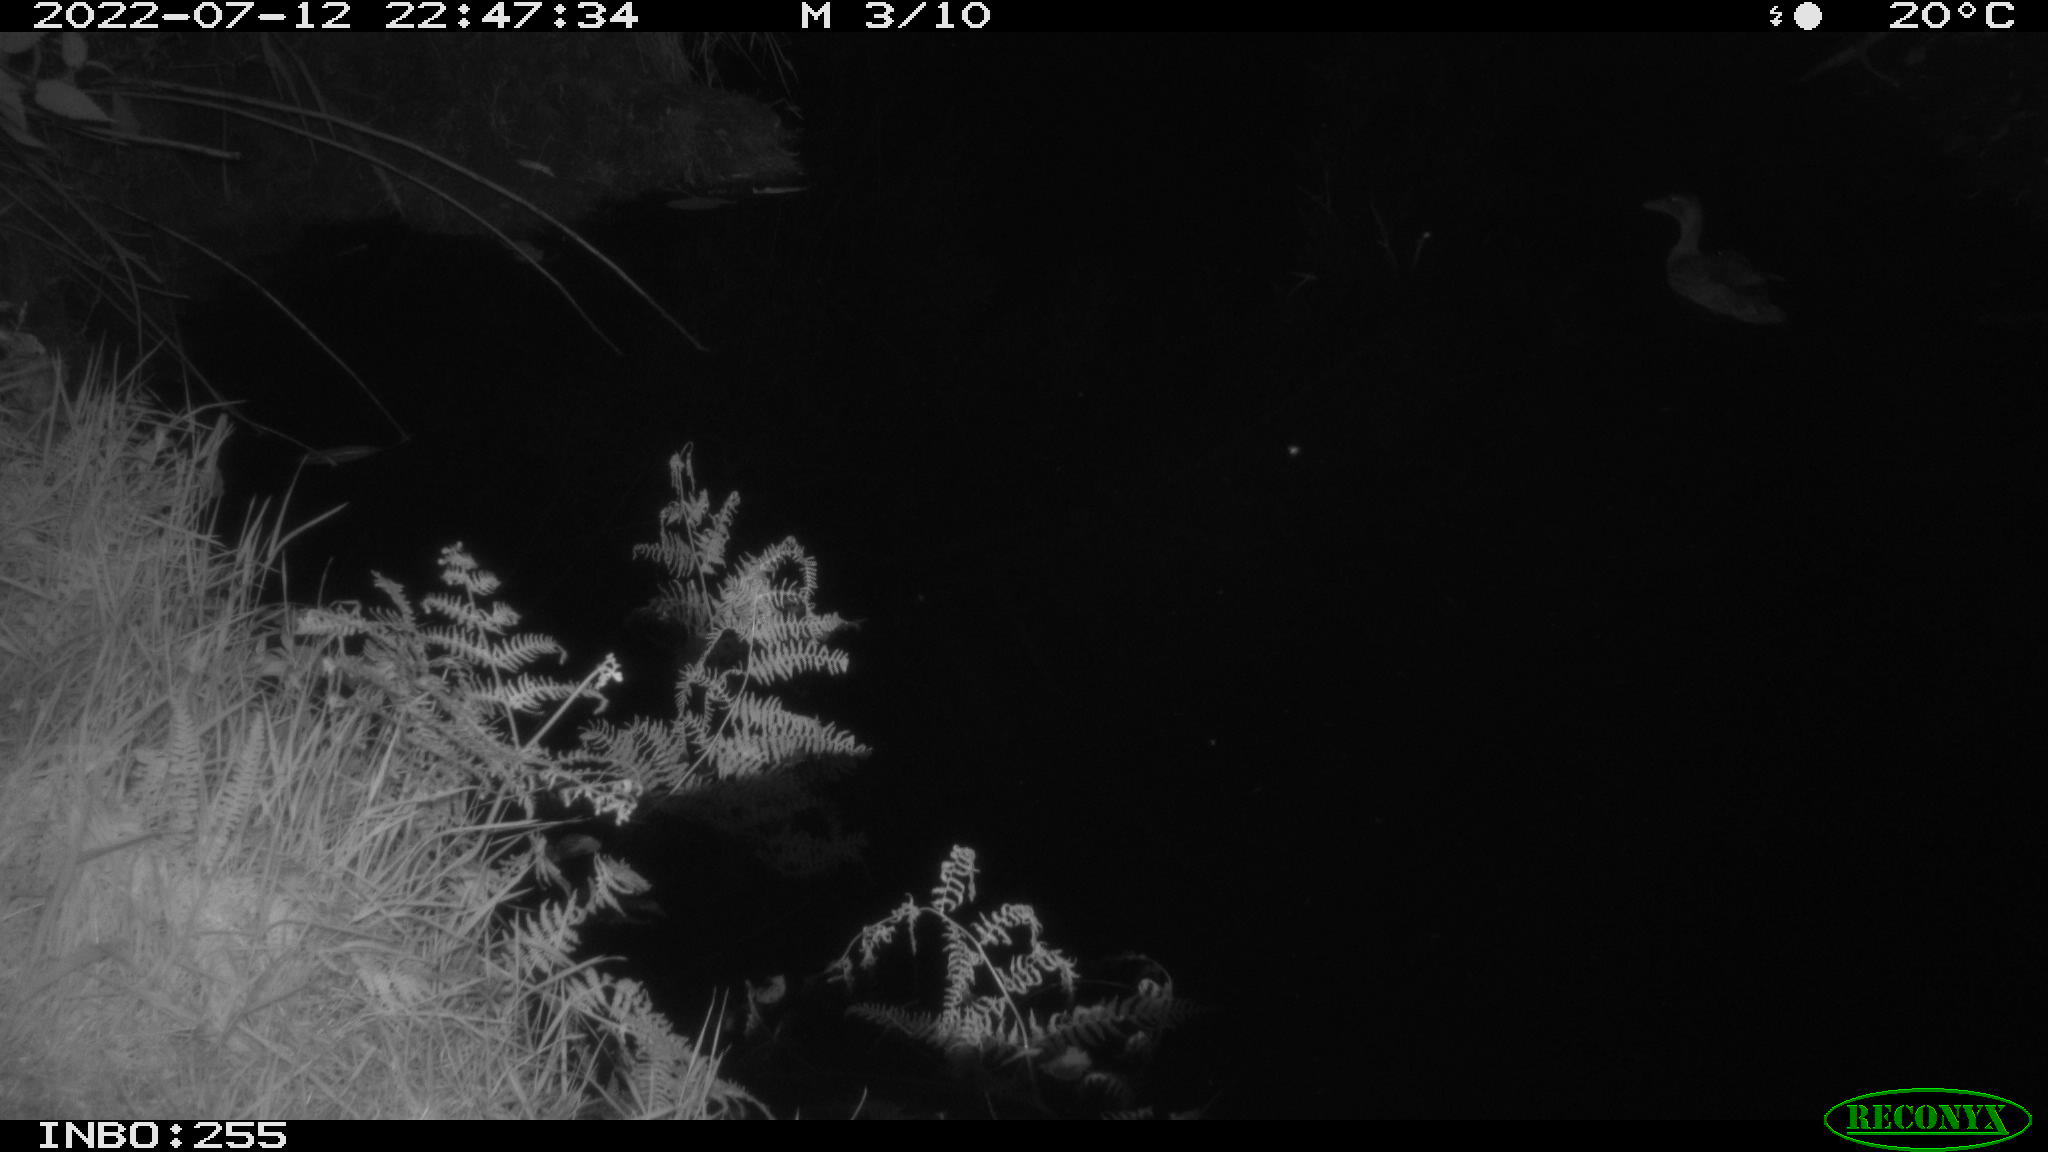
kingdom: Animalia
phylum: Chordata
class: Aves
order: Anseriformes
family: Anatidae
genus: Anas
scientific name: Anas platyrhynchos
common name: Mallard
